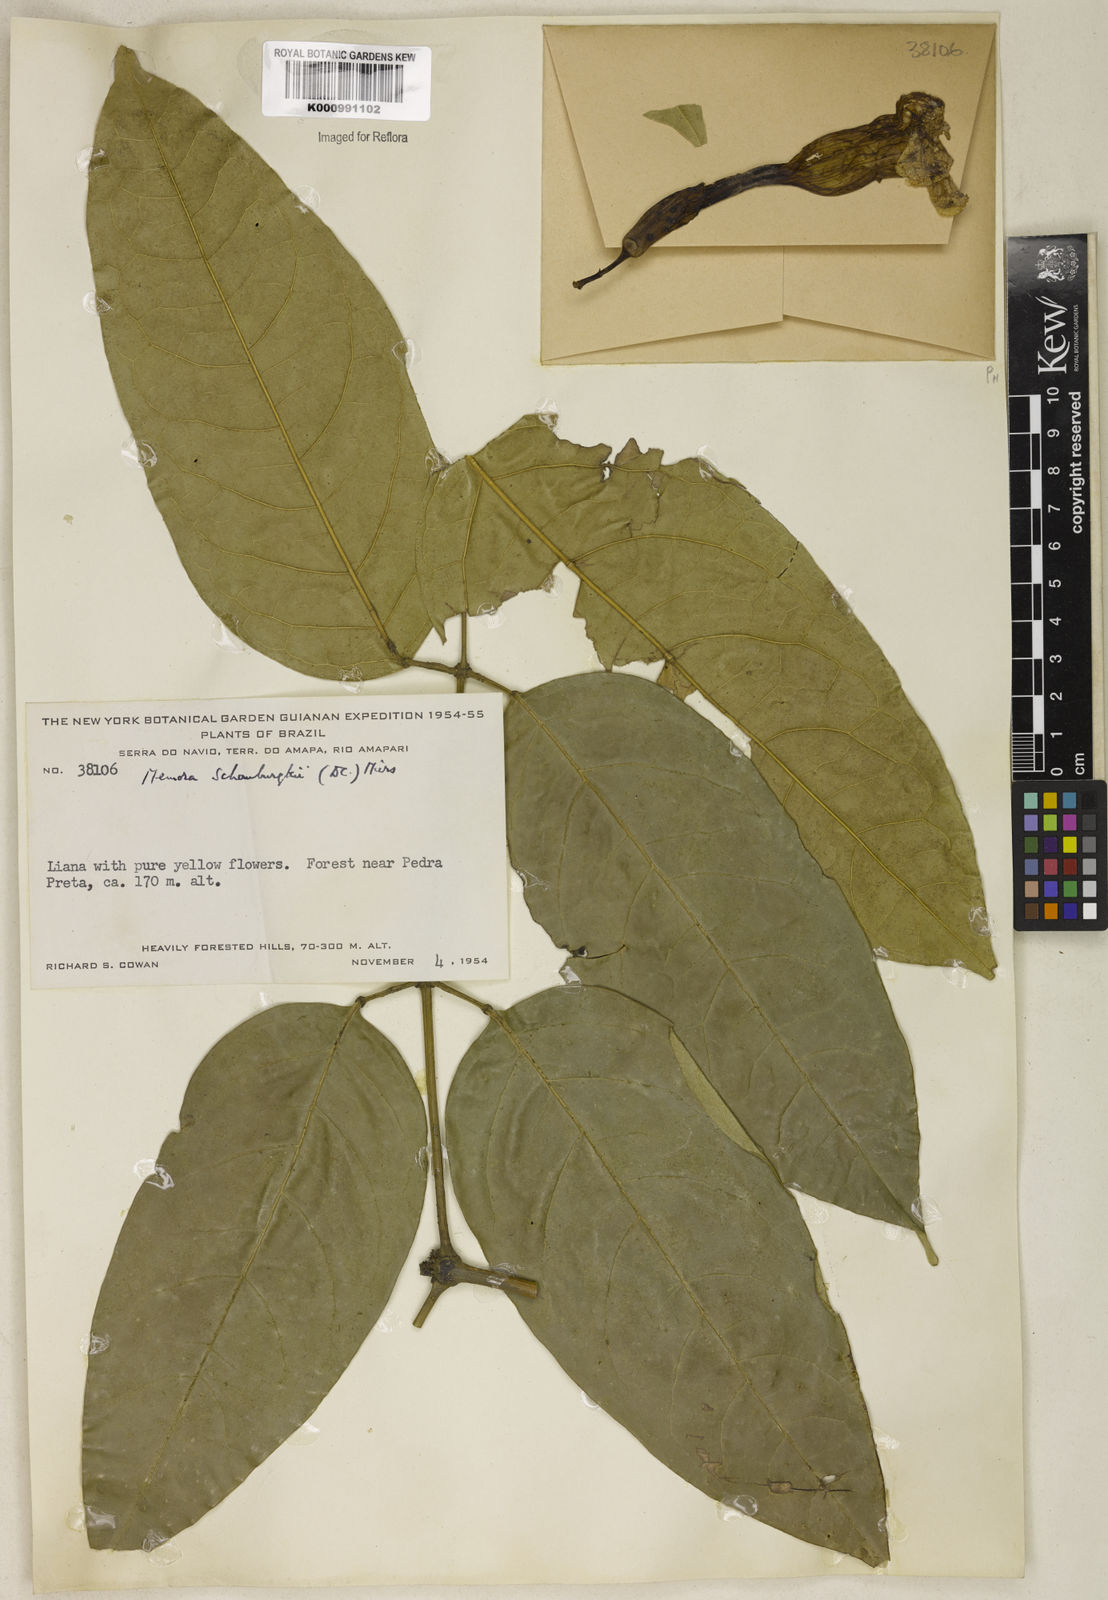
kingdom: Plantae
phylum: Tracheophyta
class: Magnoliopsida
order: Lamiales
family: Bignoniaceae
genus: Adenocalymma
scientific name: Adenocalymma schomburgkii
